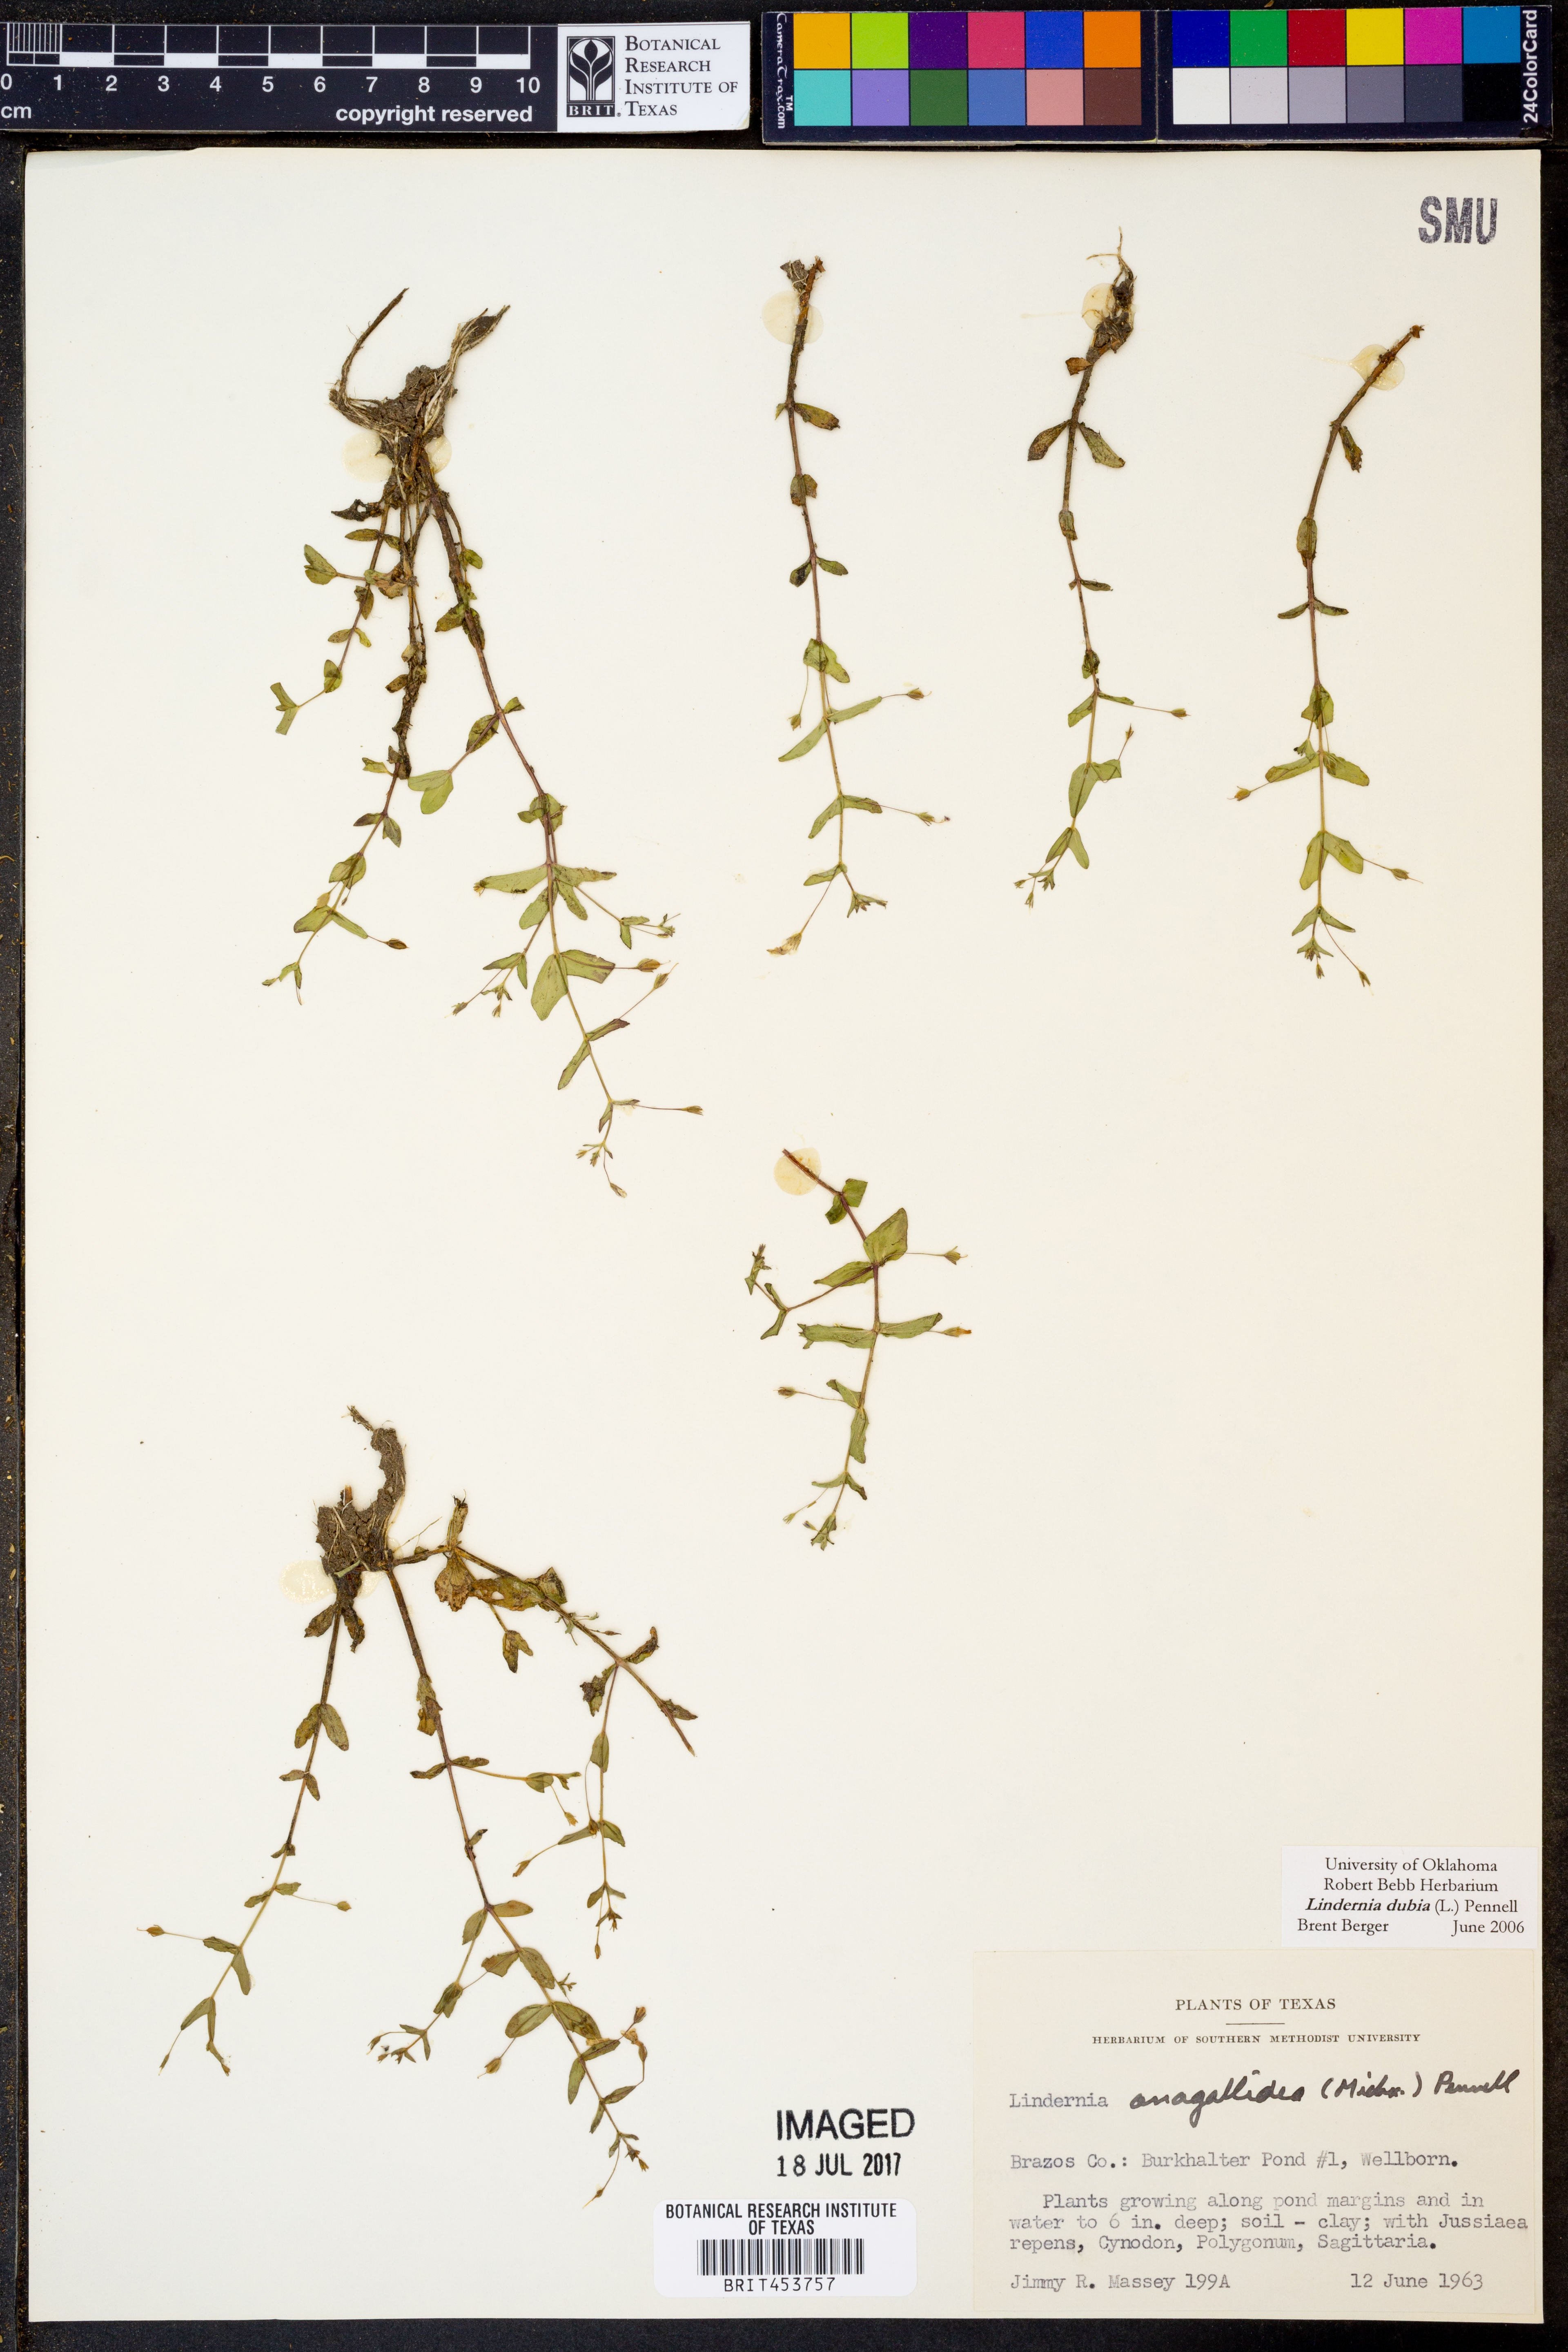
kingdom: Plantae
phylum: Tracheophyta
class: Magnoliopsida
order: Lamiales
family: Linderniaceae
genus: Lindernia
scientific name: Lindernia dubia
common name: Annual false pimpernel
